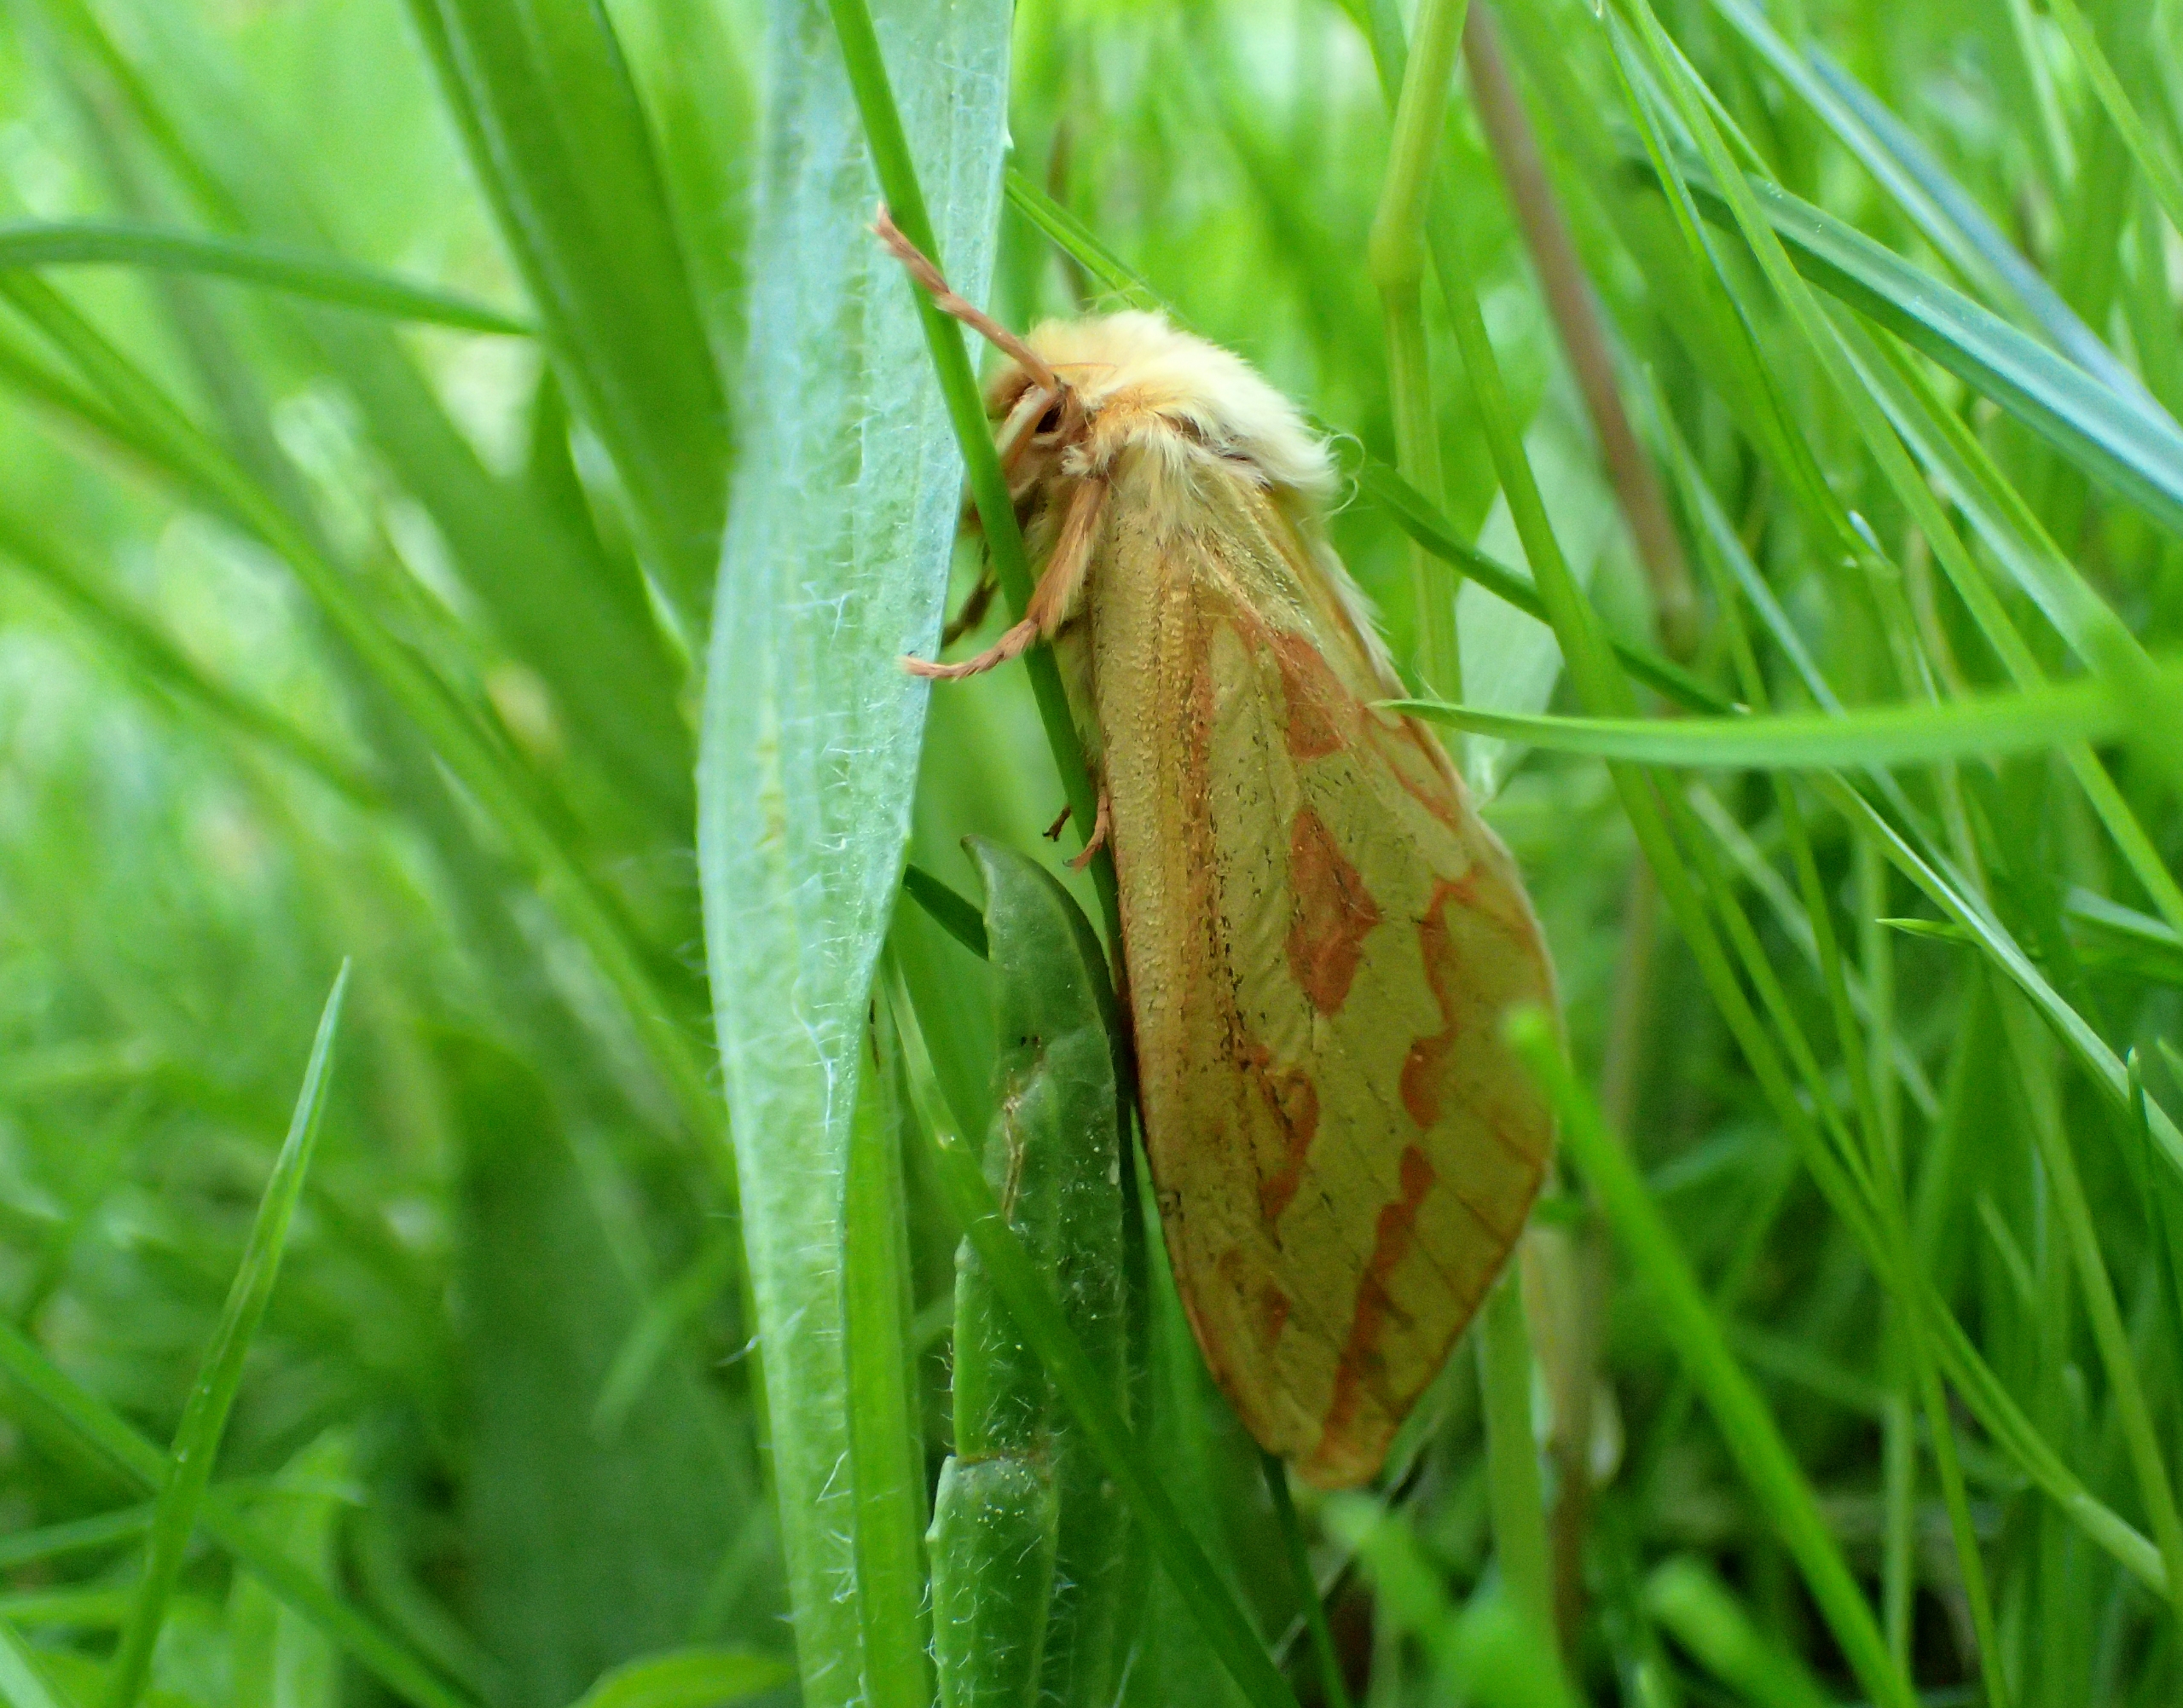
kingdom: Animalia
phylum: Arthropoda
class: Insecta
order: Lepidoptera
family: Hepialidae
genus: Hepialus
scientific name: Hepialus humuli
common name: Humlerodæder
